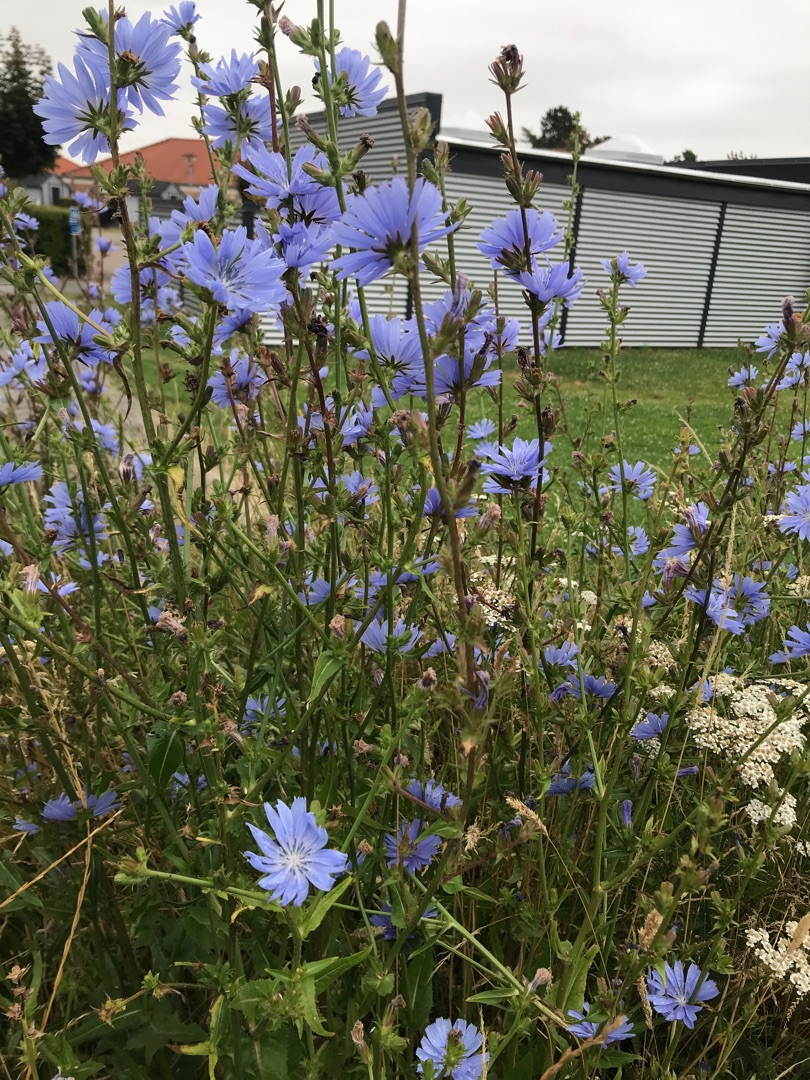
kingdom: Plantae
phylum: Tracheophyta
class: Magnoliopsida
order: Asterales
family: Asteraceae
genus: Cichorium
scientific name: Cichorium intybus
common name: Cikorie
